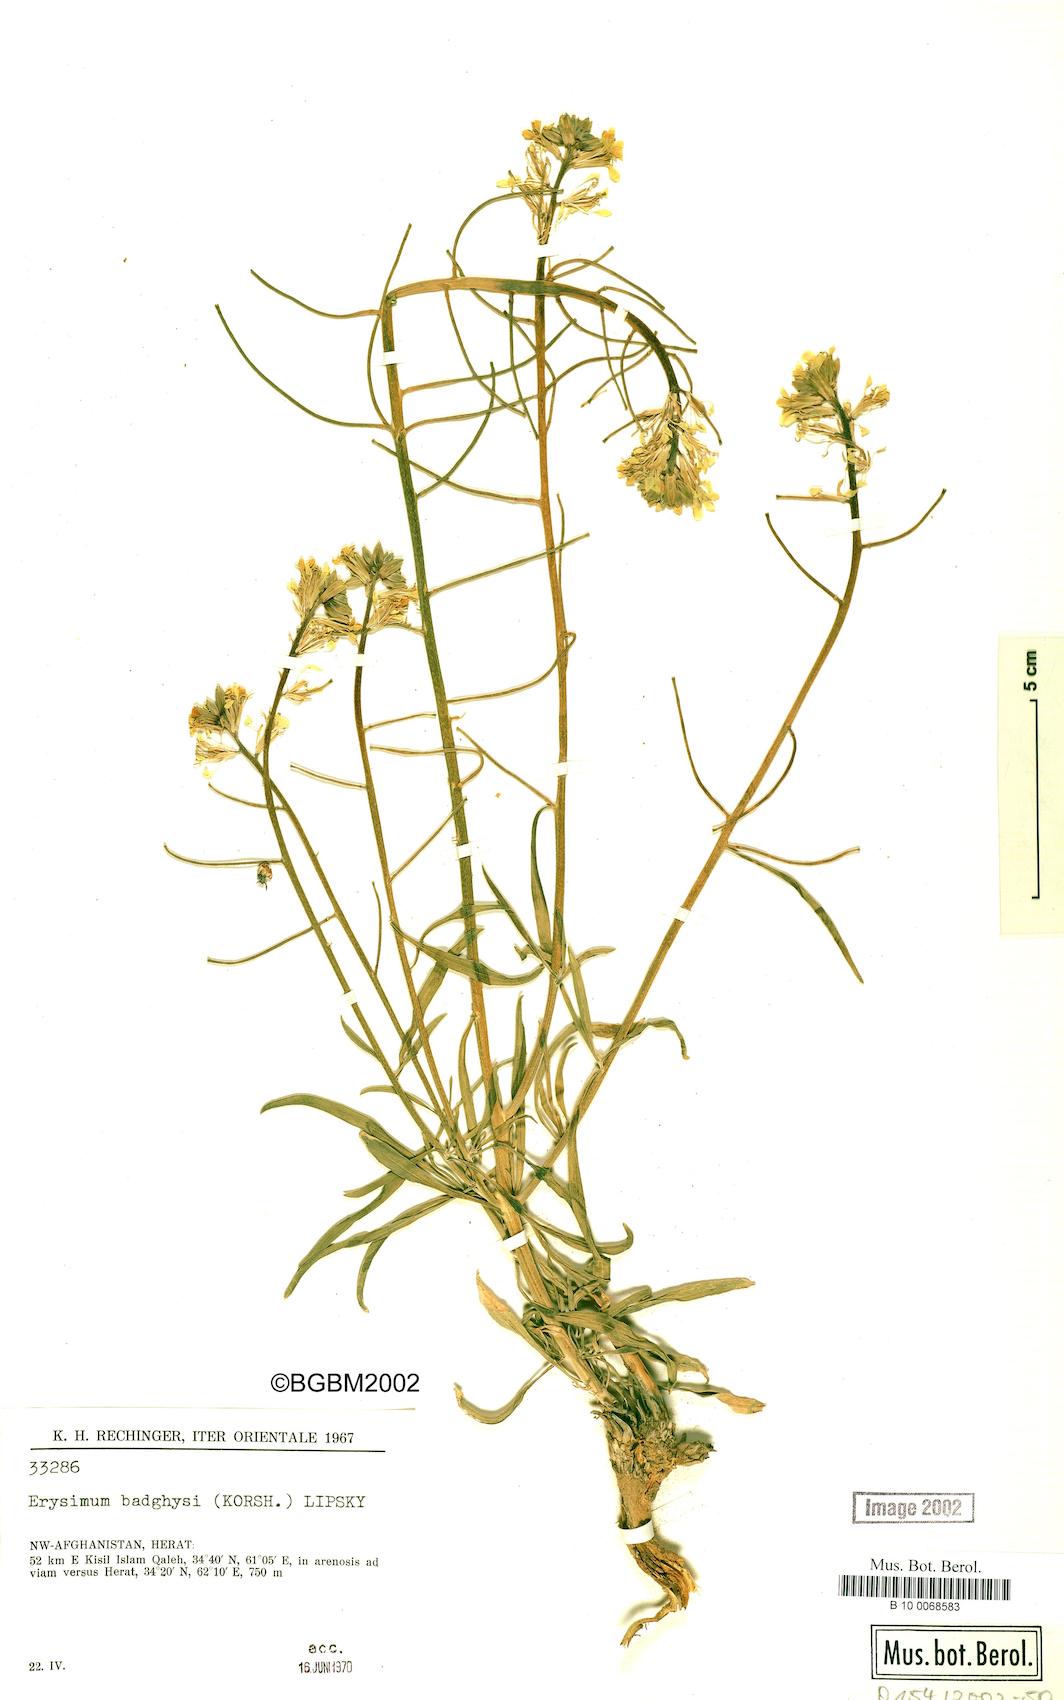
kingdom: Plantae
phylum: Tracheophyta
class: Magnoliopsida
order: Brassicales
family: Brassicaceae
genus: Erysimum
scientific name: Erysimum badghysi
